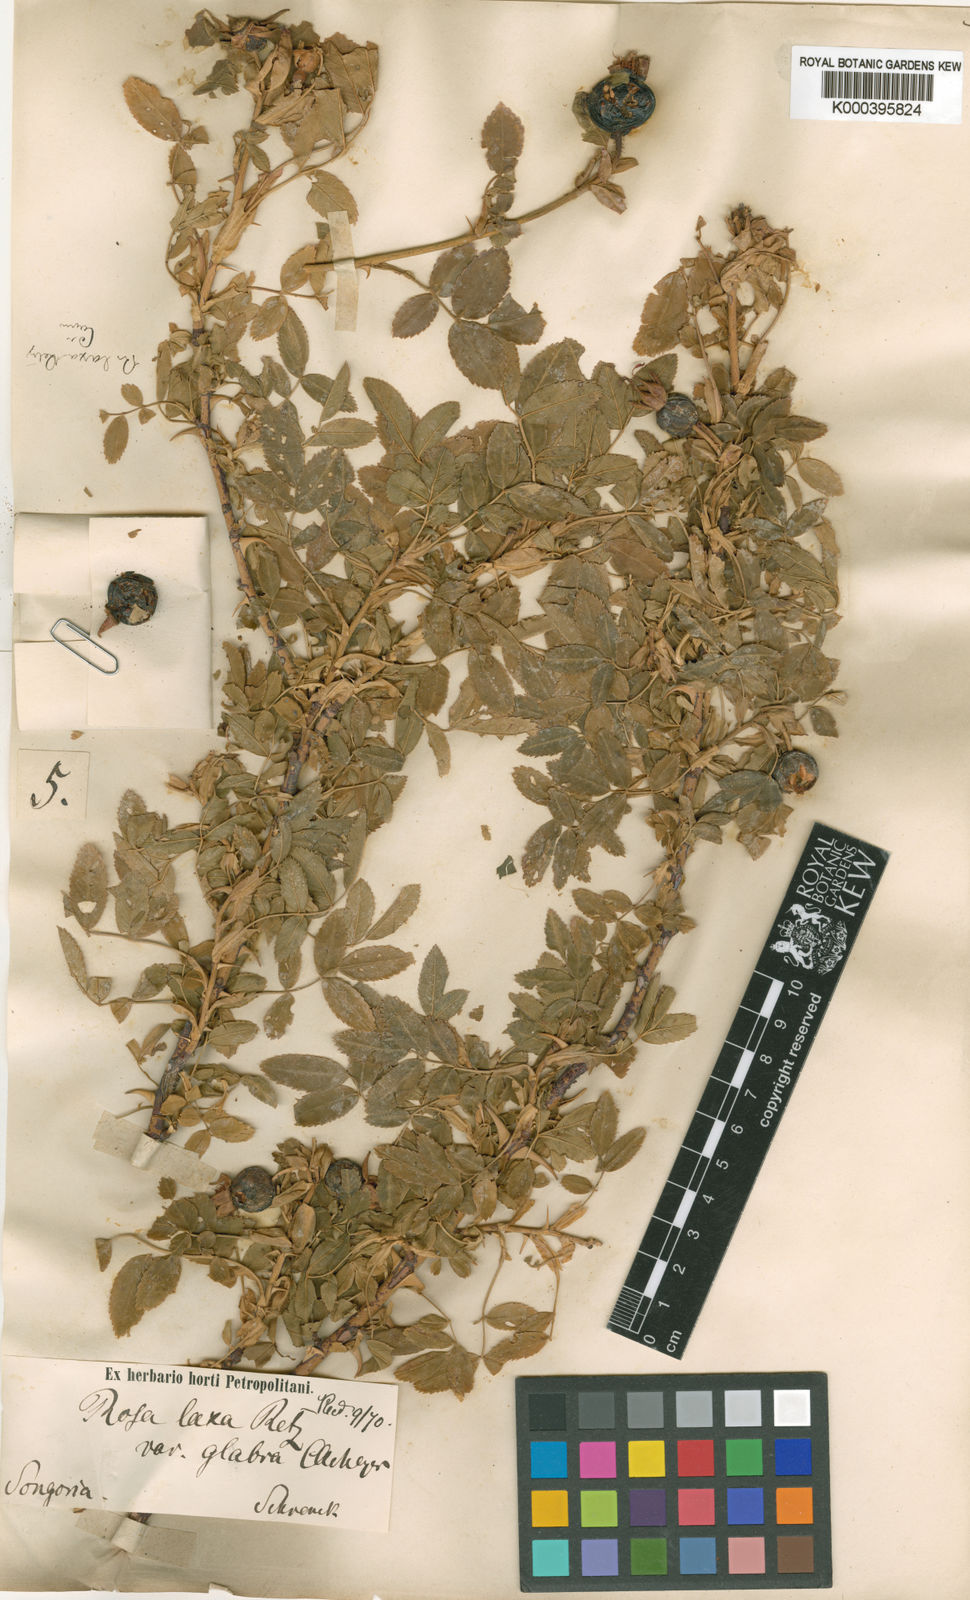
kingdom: Plantae
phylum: Tracheophyta
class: Magnoliopsida
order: Rosales
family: Rosaceae
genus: Rosa
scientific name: Rosa laxa
